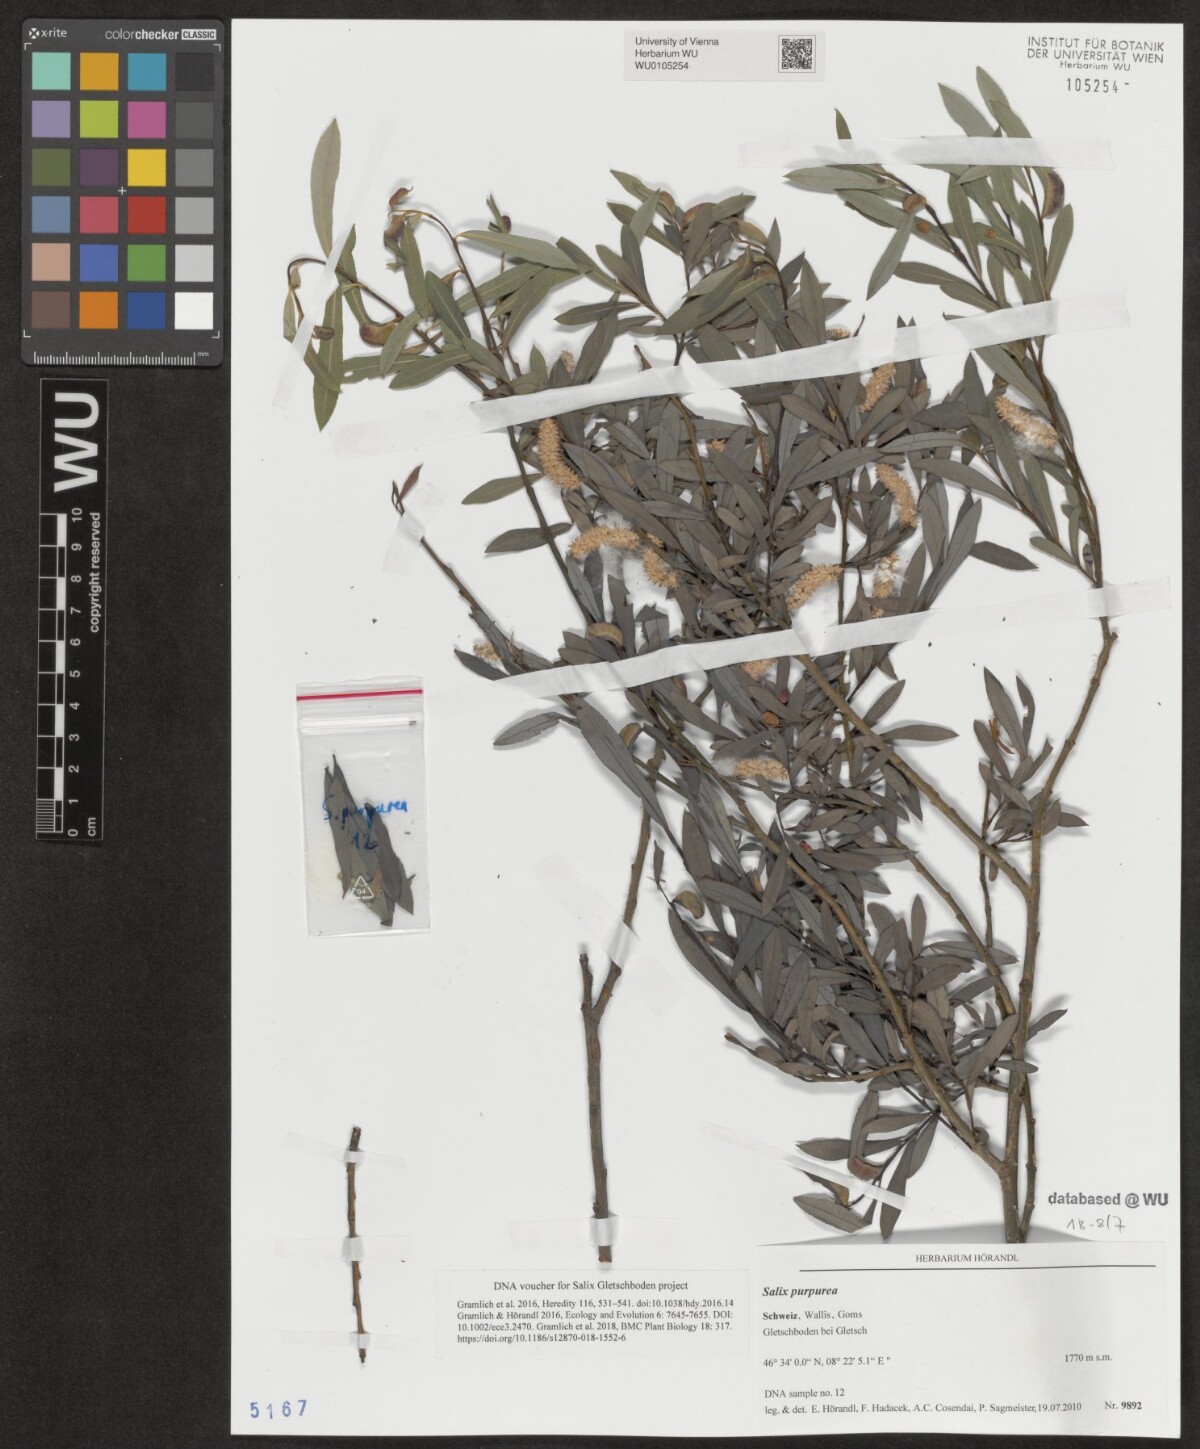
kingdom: Plantae
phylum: Tracheophyta
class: Magnoliopsida
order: Malpighiales
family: Salicaceae
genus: Salix
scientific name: Salix purpurea
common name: Purple willow
